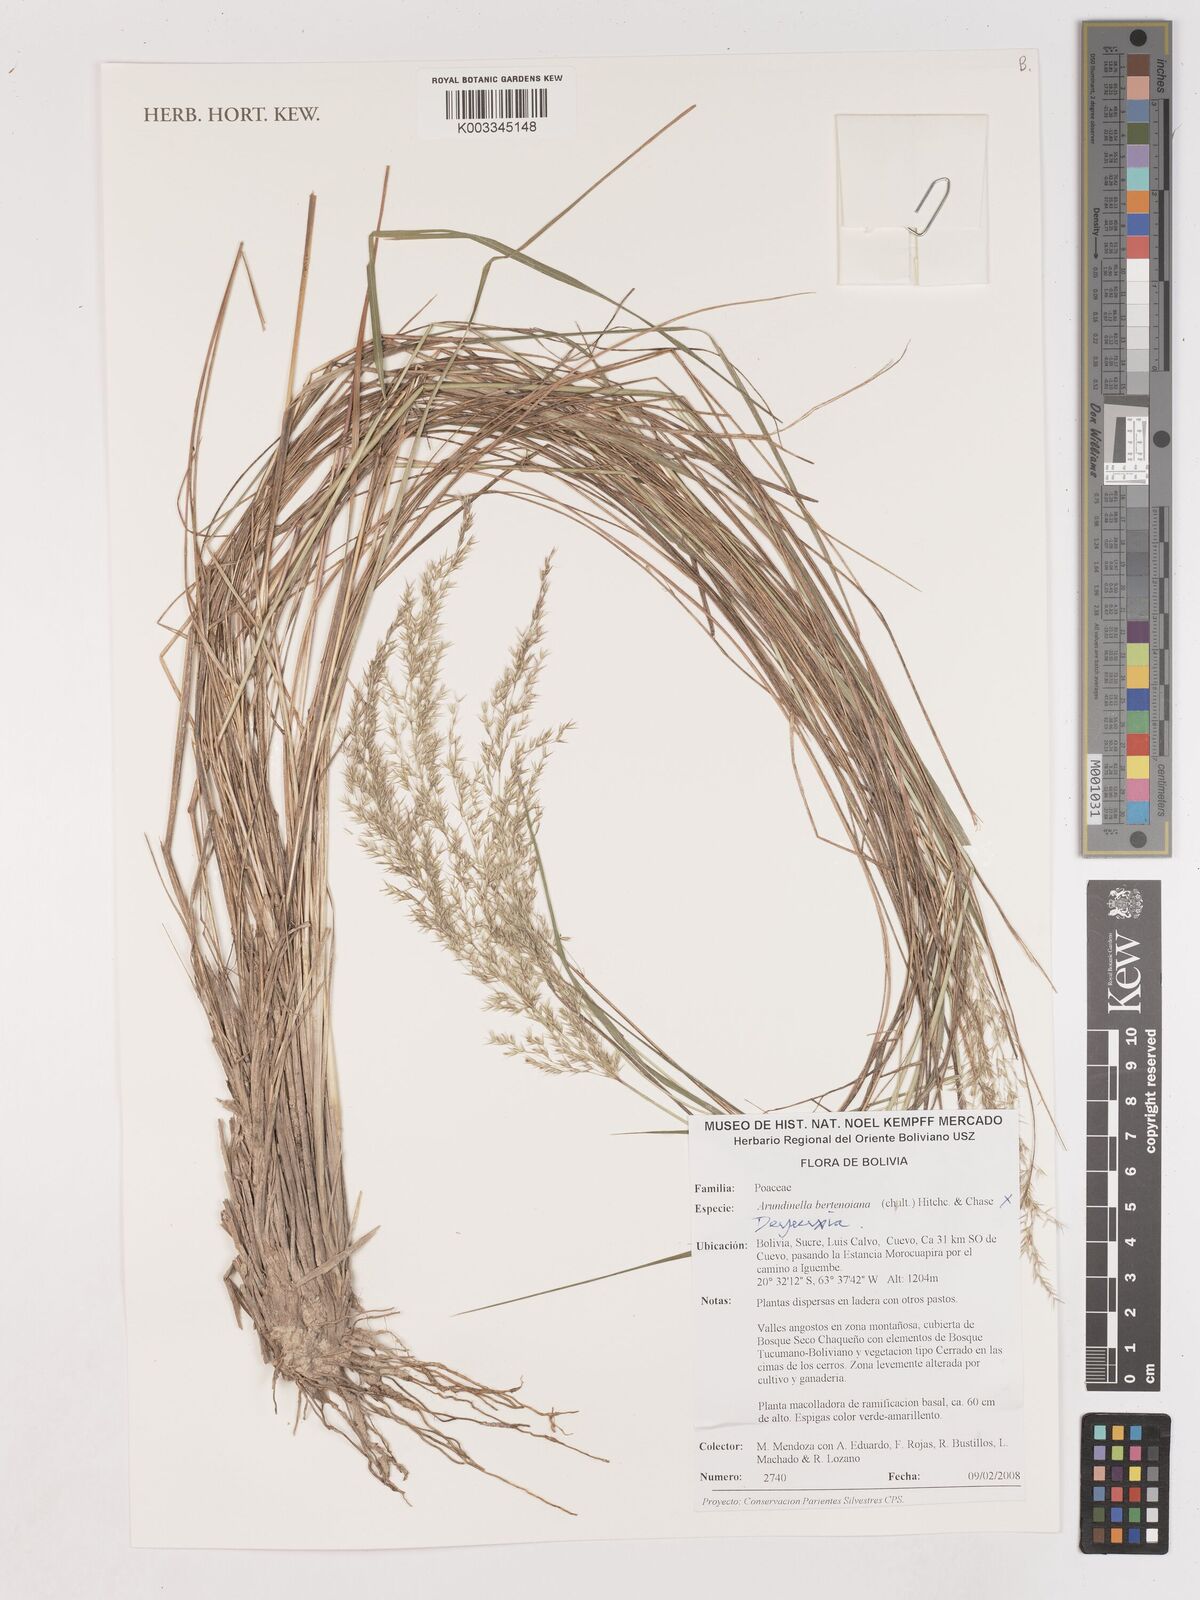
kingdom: Plantae
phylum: Tracheophyta
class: Liliopsida
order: Poales
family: Poaceae
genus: Calamagrostis
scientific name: Calamagrostis
